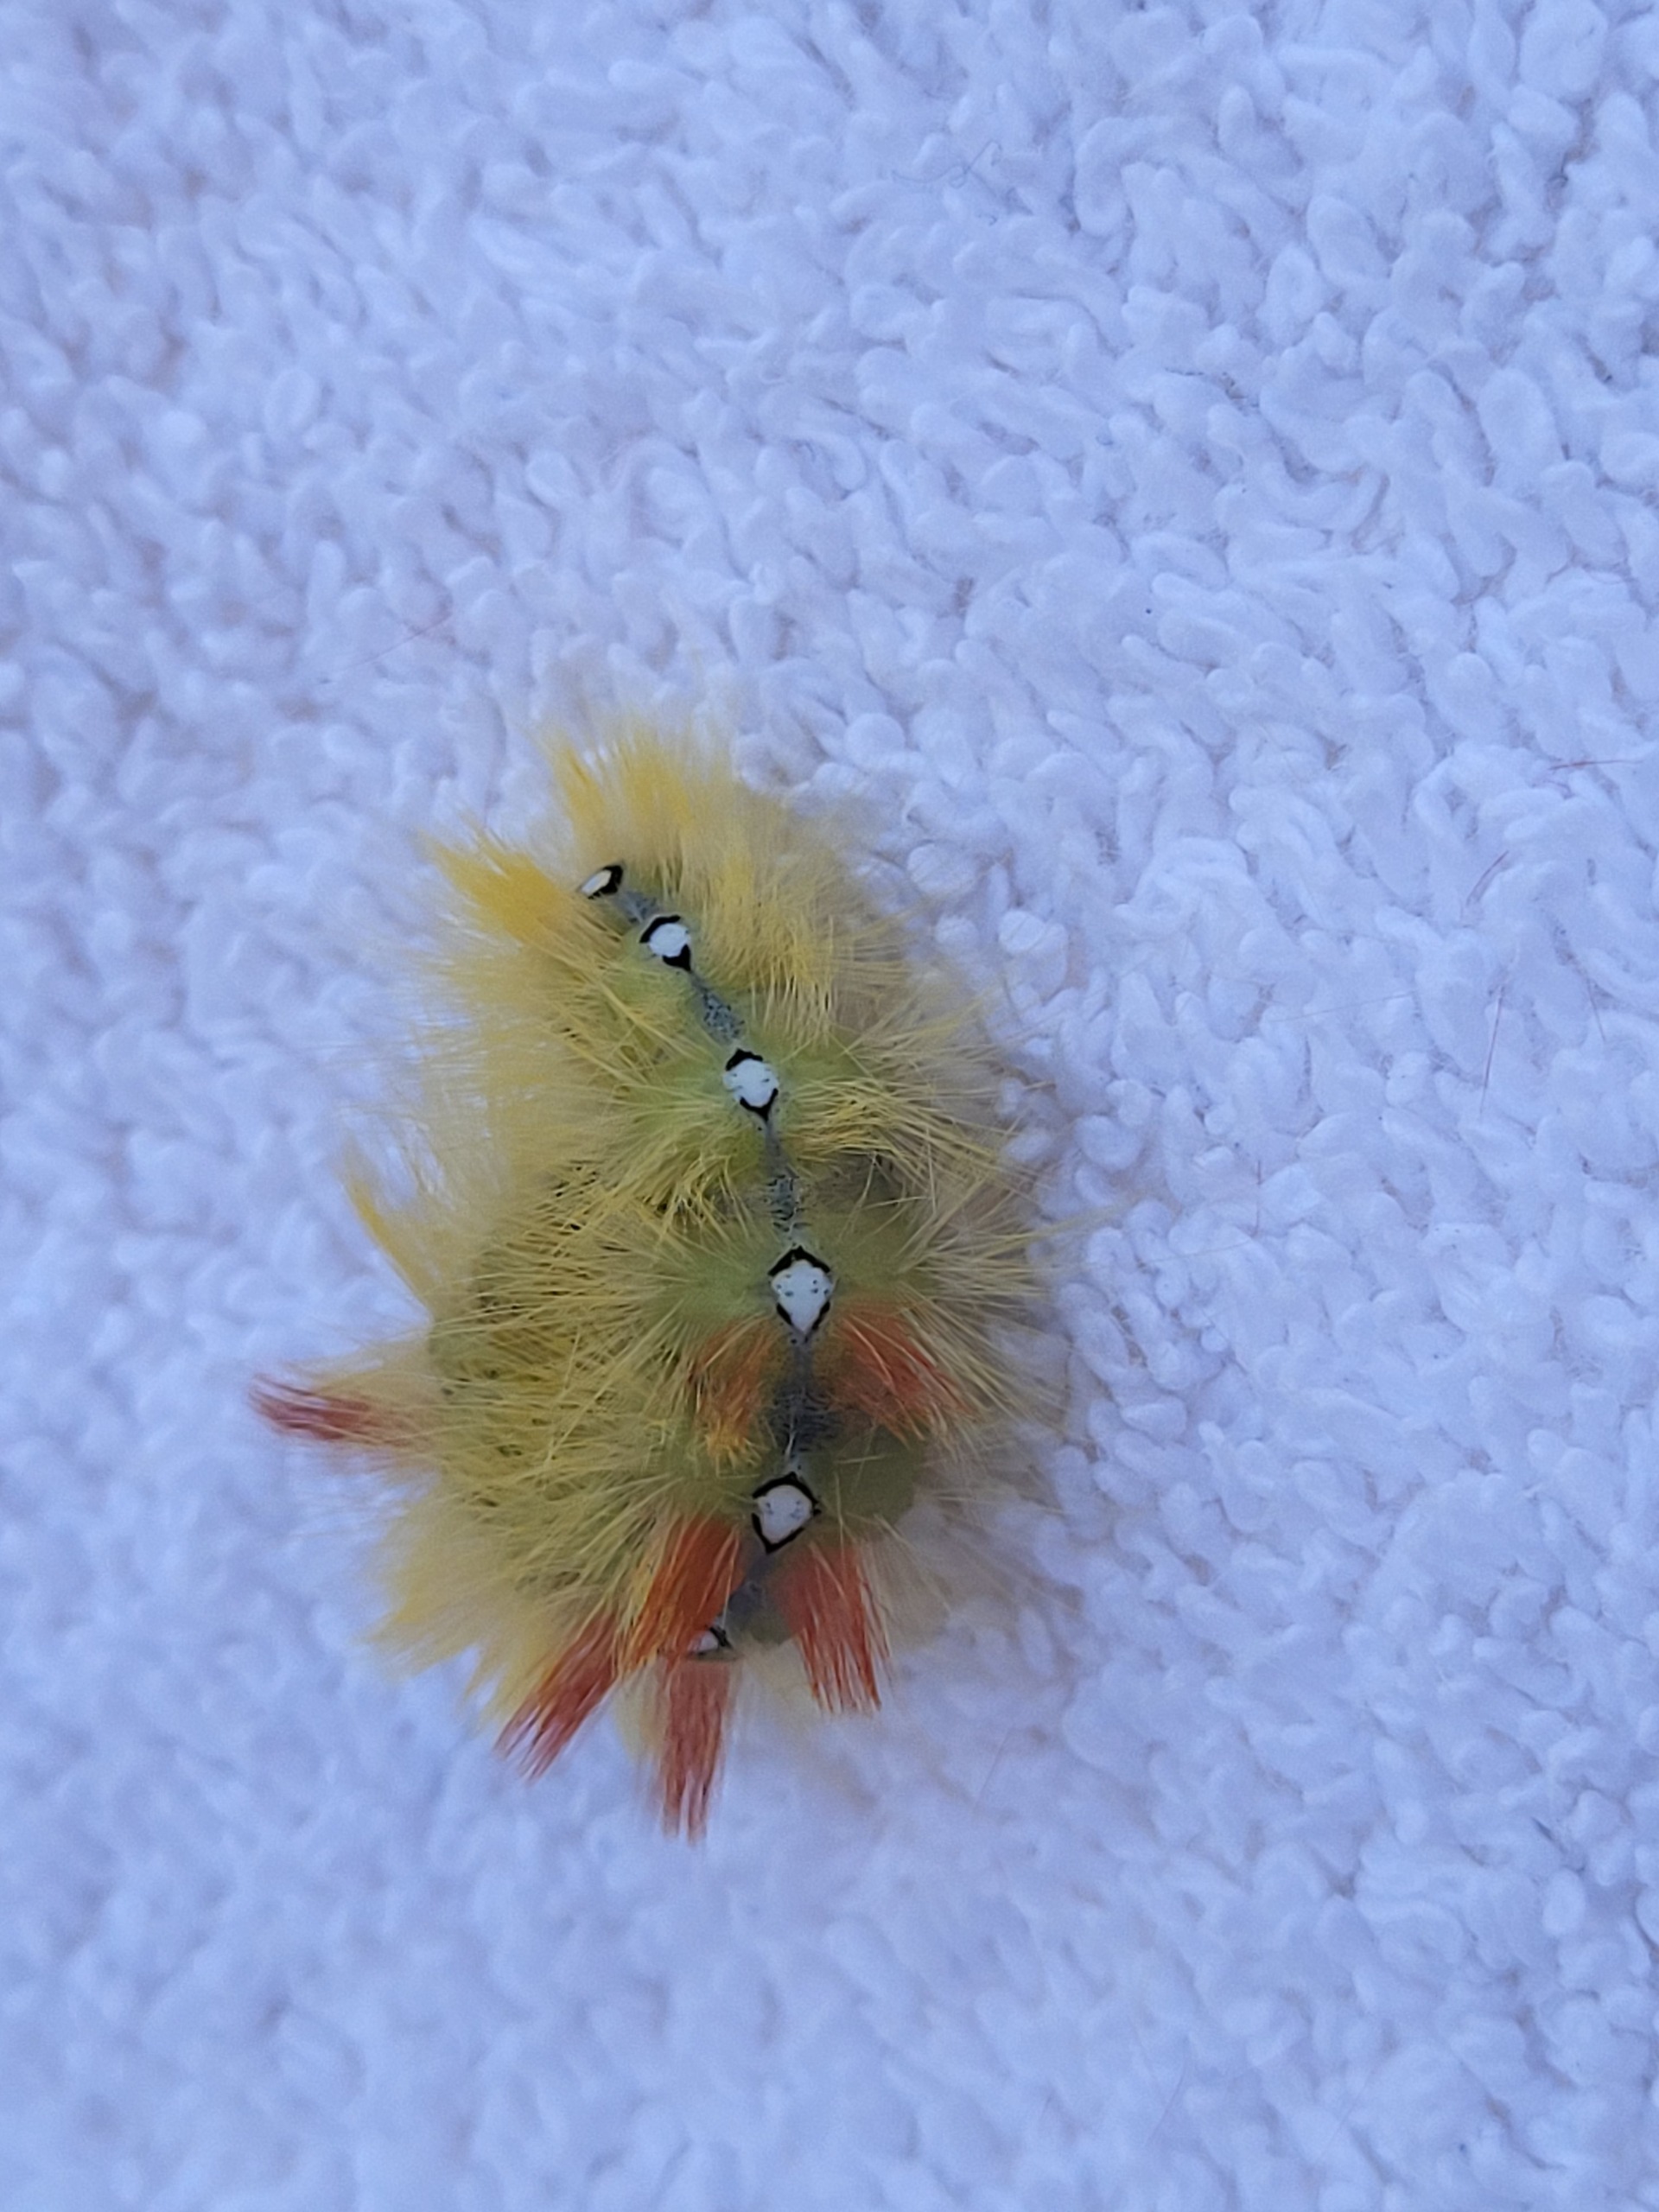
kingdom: Animalia
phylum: Arthropoda
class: Insecta
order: Lepidoptera
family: Noctuidae
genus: Acronicta
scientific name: Acronicta aceris
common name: Ahornugle
